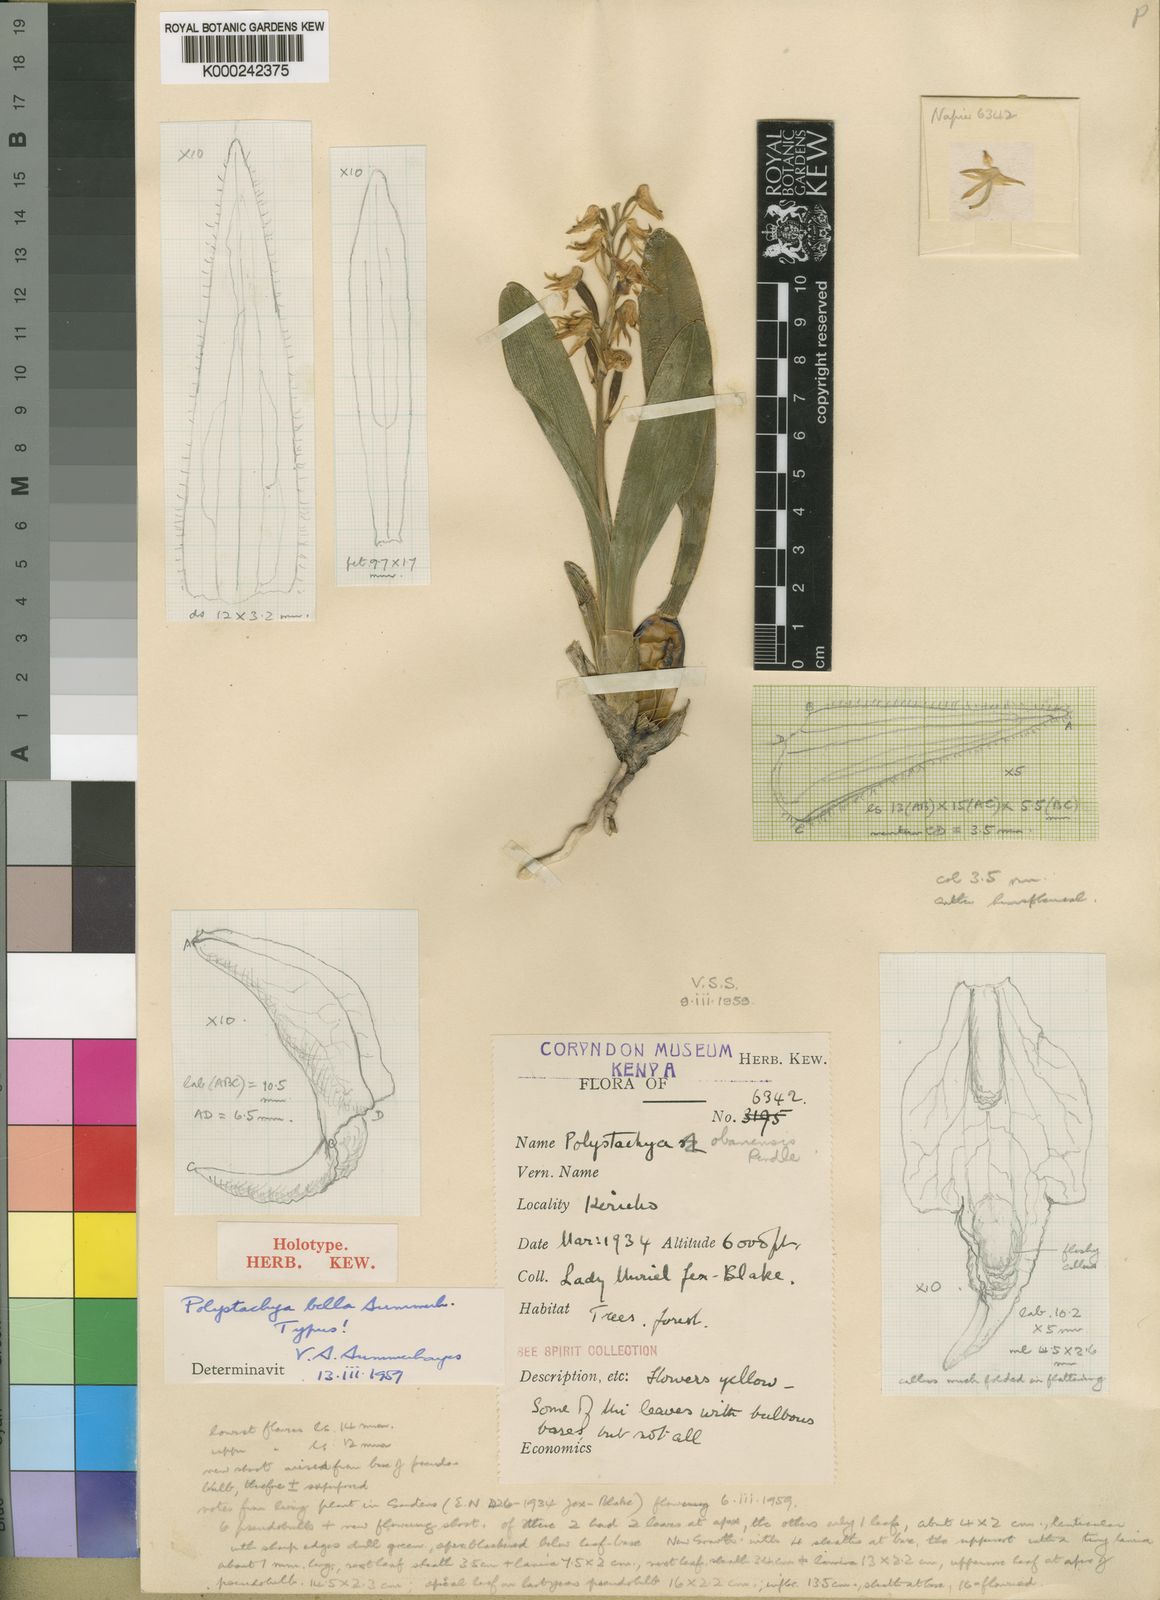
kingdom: Plantae
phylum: Tracheophyta
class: Liliopsida
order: Asparagales
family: Orchidaceae
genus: Polystachya
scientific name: Polystachya bella
